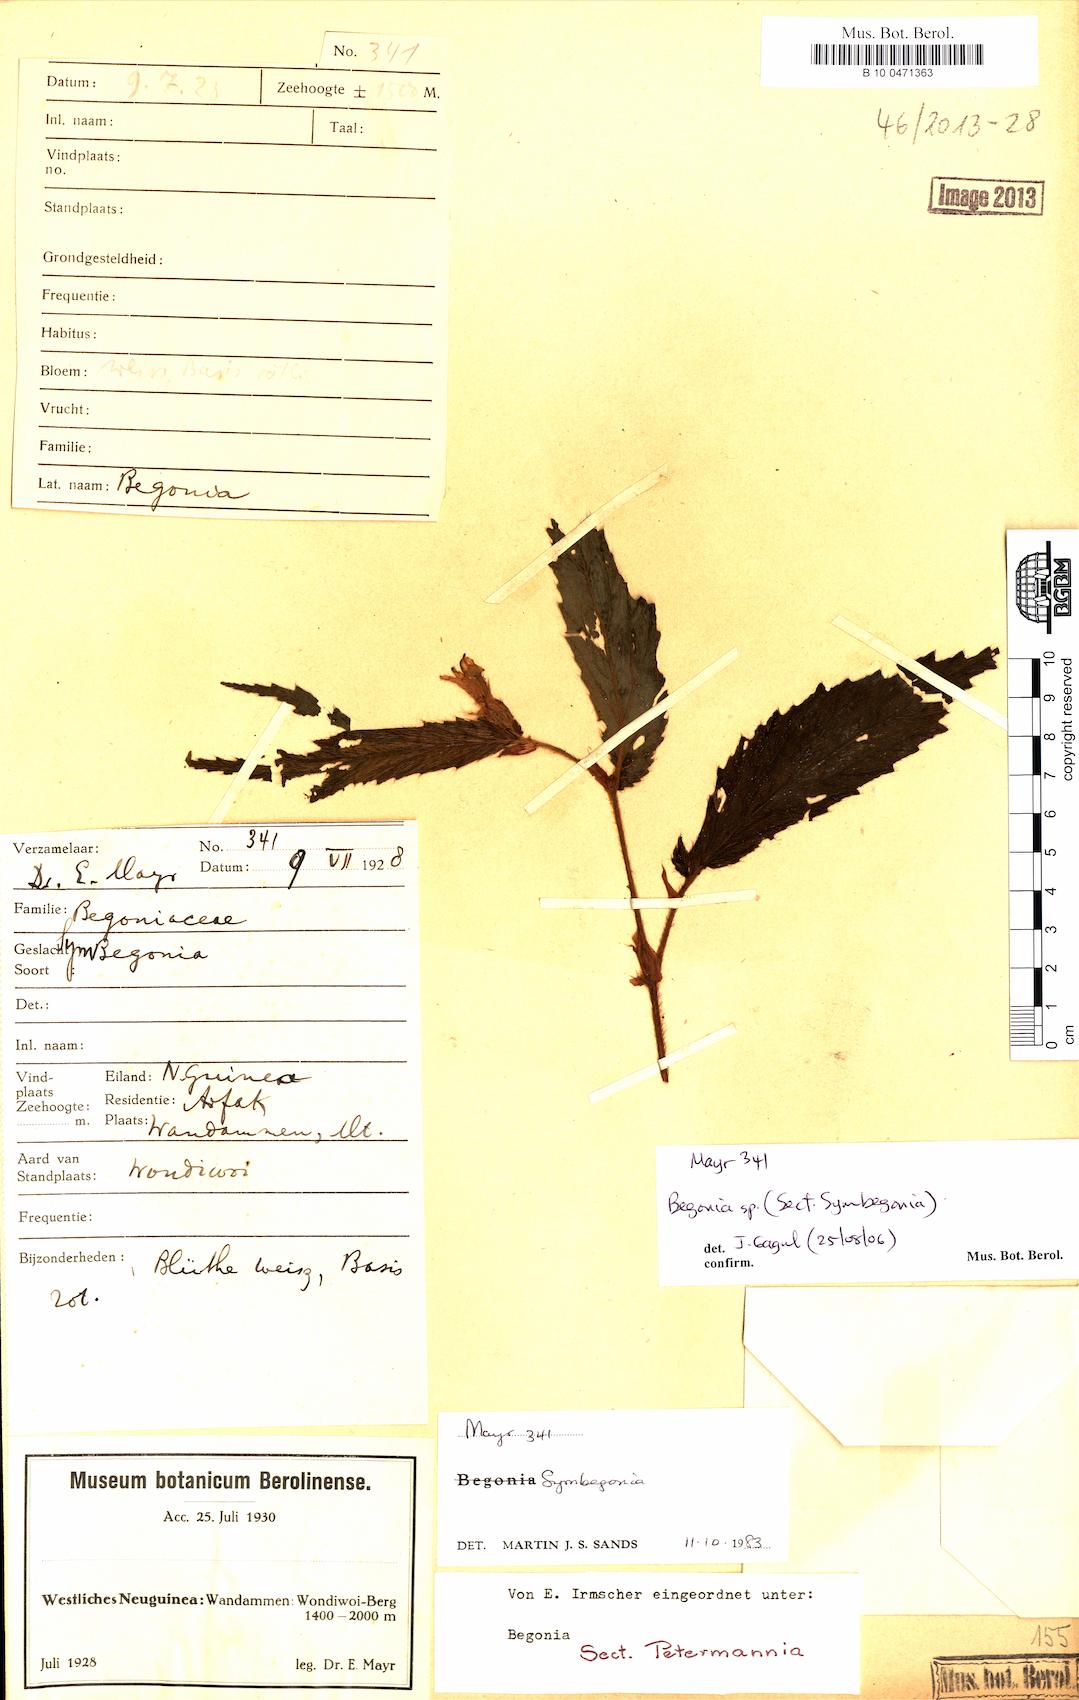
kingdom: Plantae
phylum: Tracheophyta
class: Magnoliopsida
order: Cucurbitales
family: Begoniaceae
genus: Begonia
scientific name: Begonia
